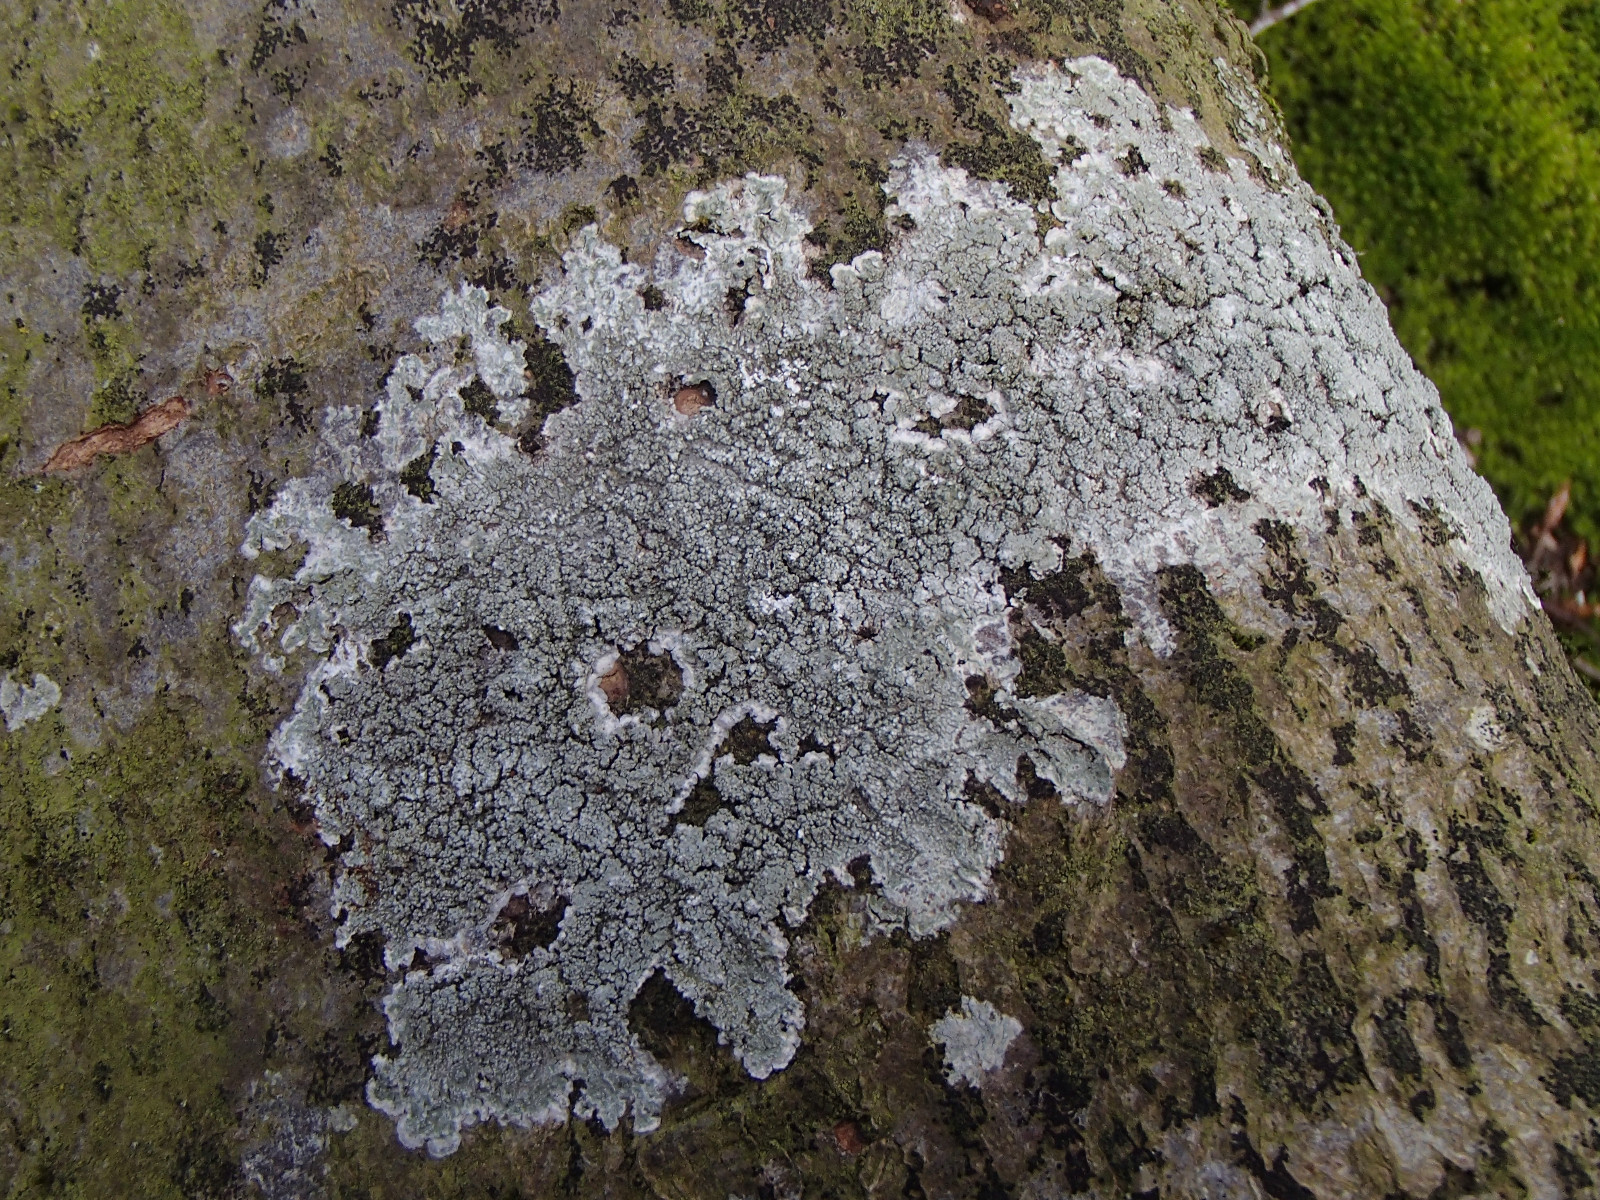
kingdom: Fungi
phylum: Ascomycota
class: Lecanoromycetes
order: Pertusariales
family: Pertusariaceae
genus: Lepra
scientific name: Lepra albescens
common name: hvidmelet prikvortelav
